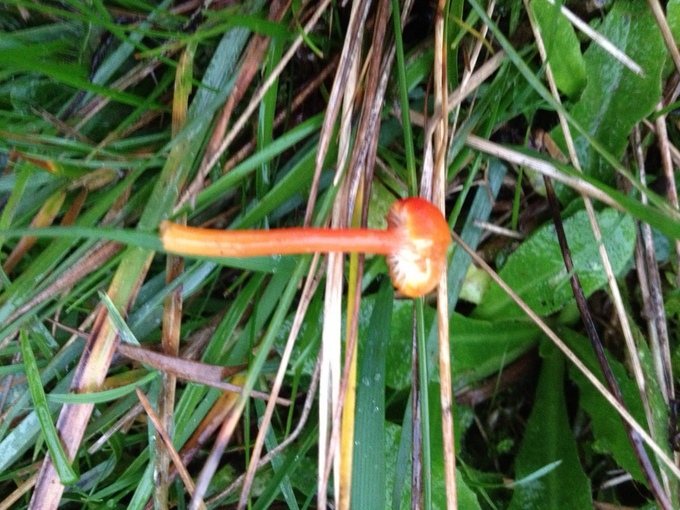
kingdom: Fungi
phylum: Basidiomycota
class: Agaricomycetes
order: Agaricales
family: Hygrophoraceae
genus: Hygrocybe
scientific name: Hygrocybe cantharellus
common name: kantarel-vokshat
